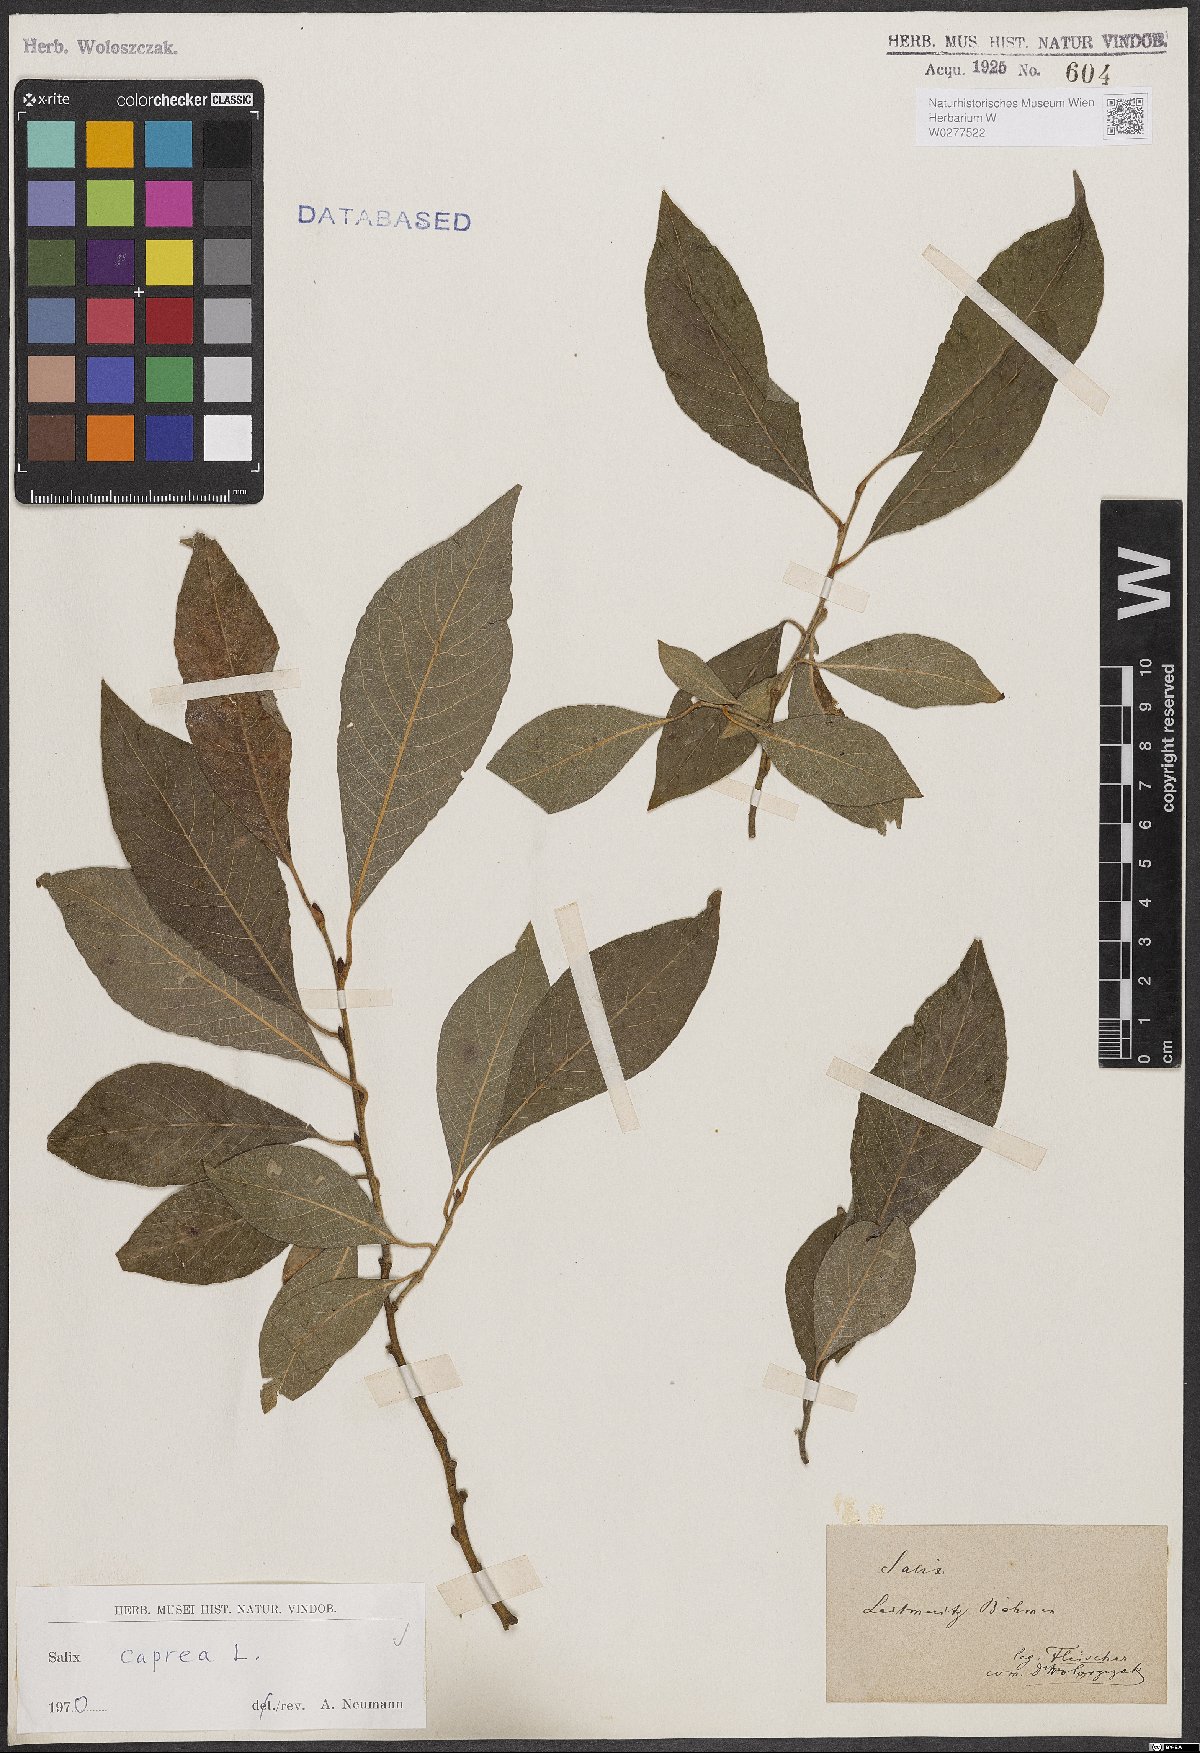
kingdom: Plantae
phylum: Tracheophyta
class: Magnoliopsida
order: Malpighiales
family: Salicaceae
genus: Salix
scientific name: Salix caprea
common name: Goat willow
